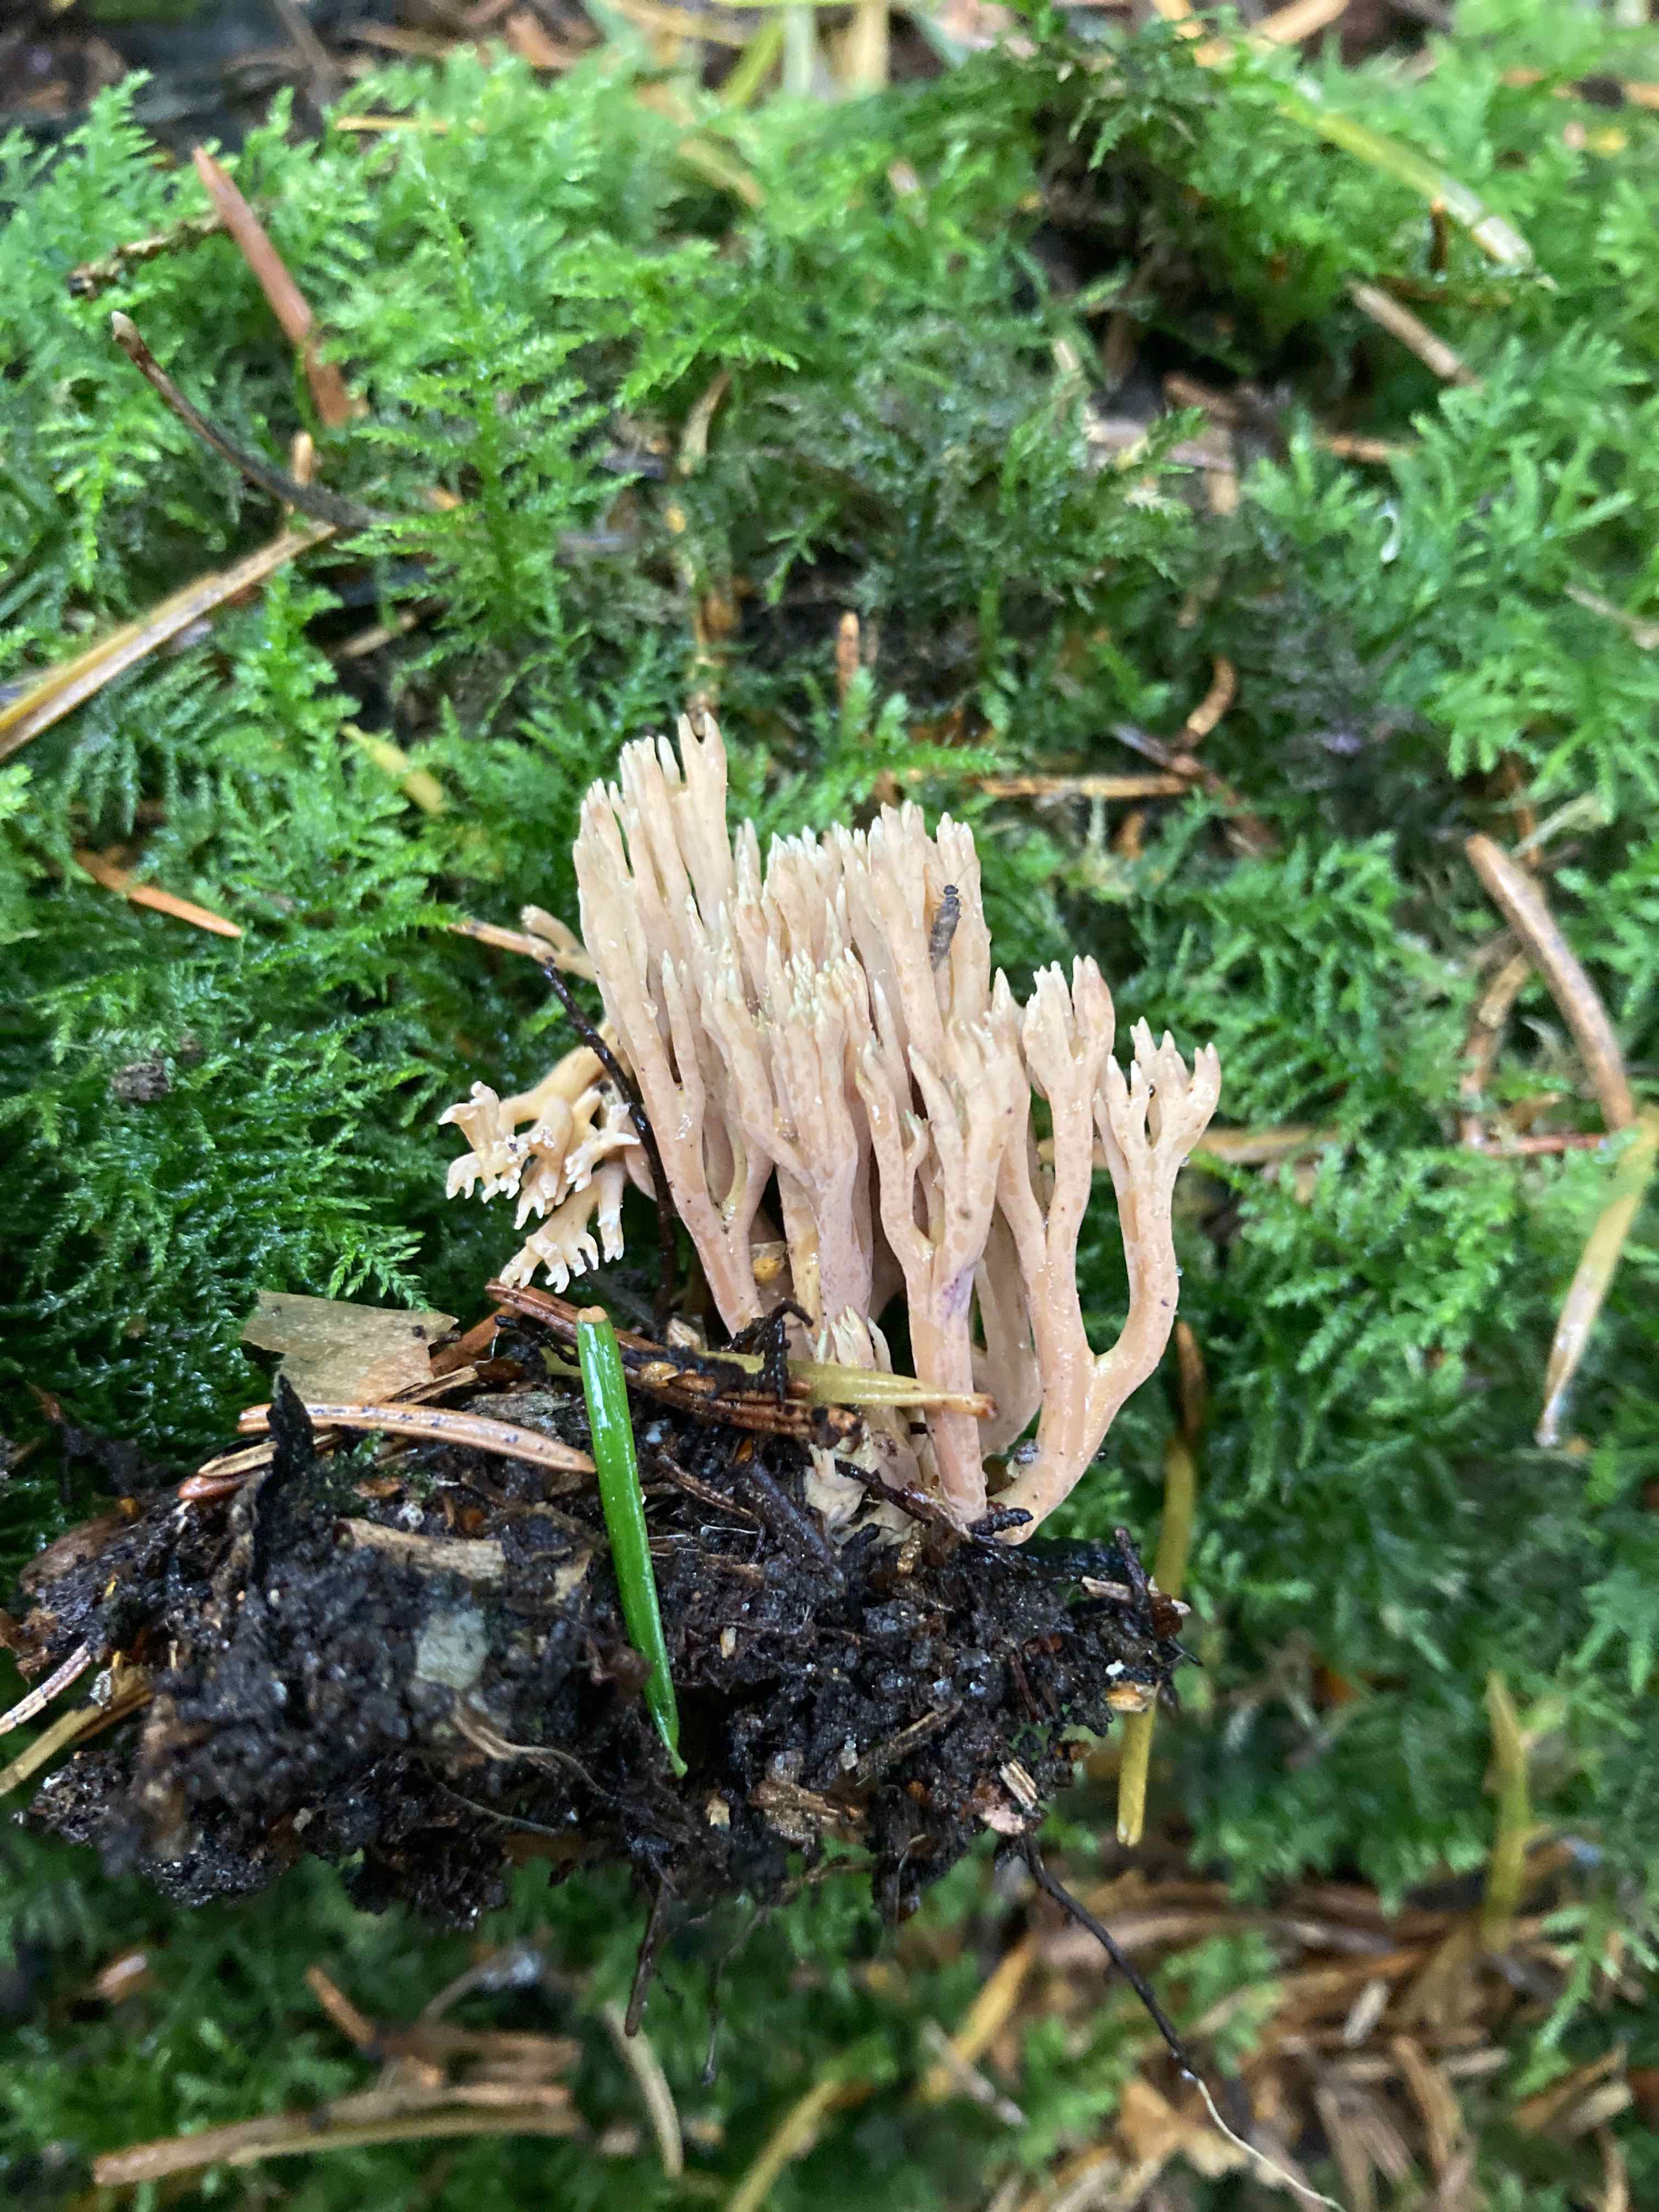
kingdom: Fungi
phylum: Basidiomycota
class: Agaricomycetes
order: Gomphales
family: Gomphaceae
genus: Ramaria
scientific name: Ramaria apiculata
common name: grøntoppet koralsvamp
